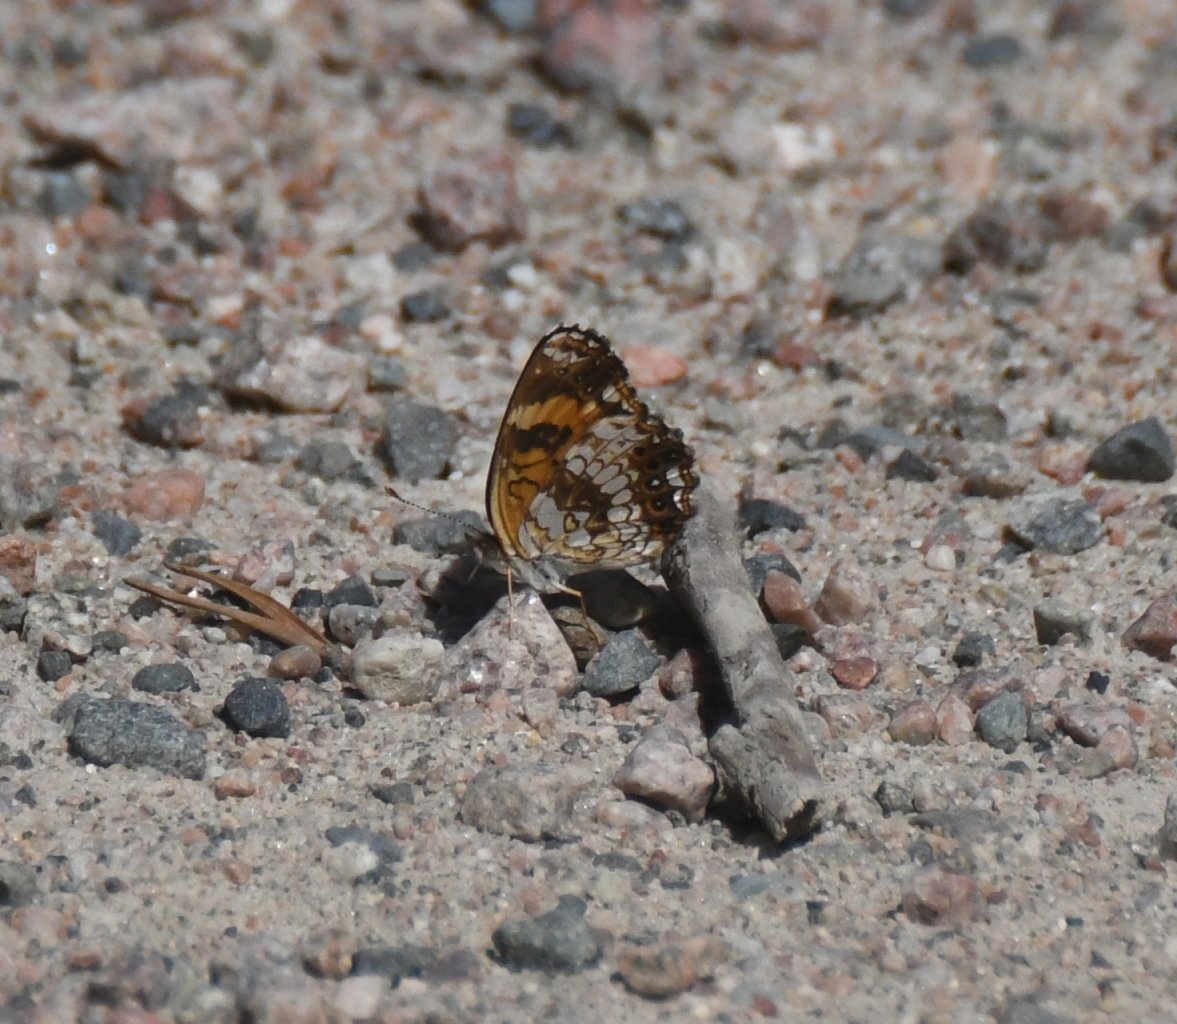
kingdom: Animalia
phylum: Arthropoda
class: Insecta
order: Lepidoptera
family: Nymphalidae
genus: Chlosyne
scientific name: Chlosyne nycteis
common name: Silvery Checkerspot
